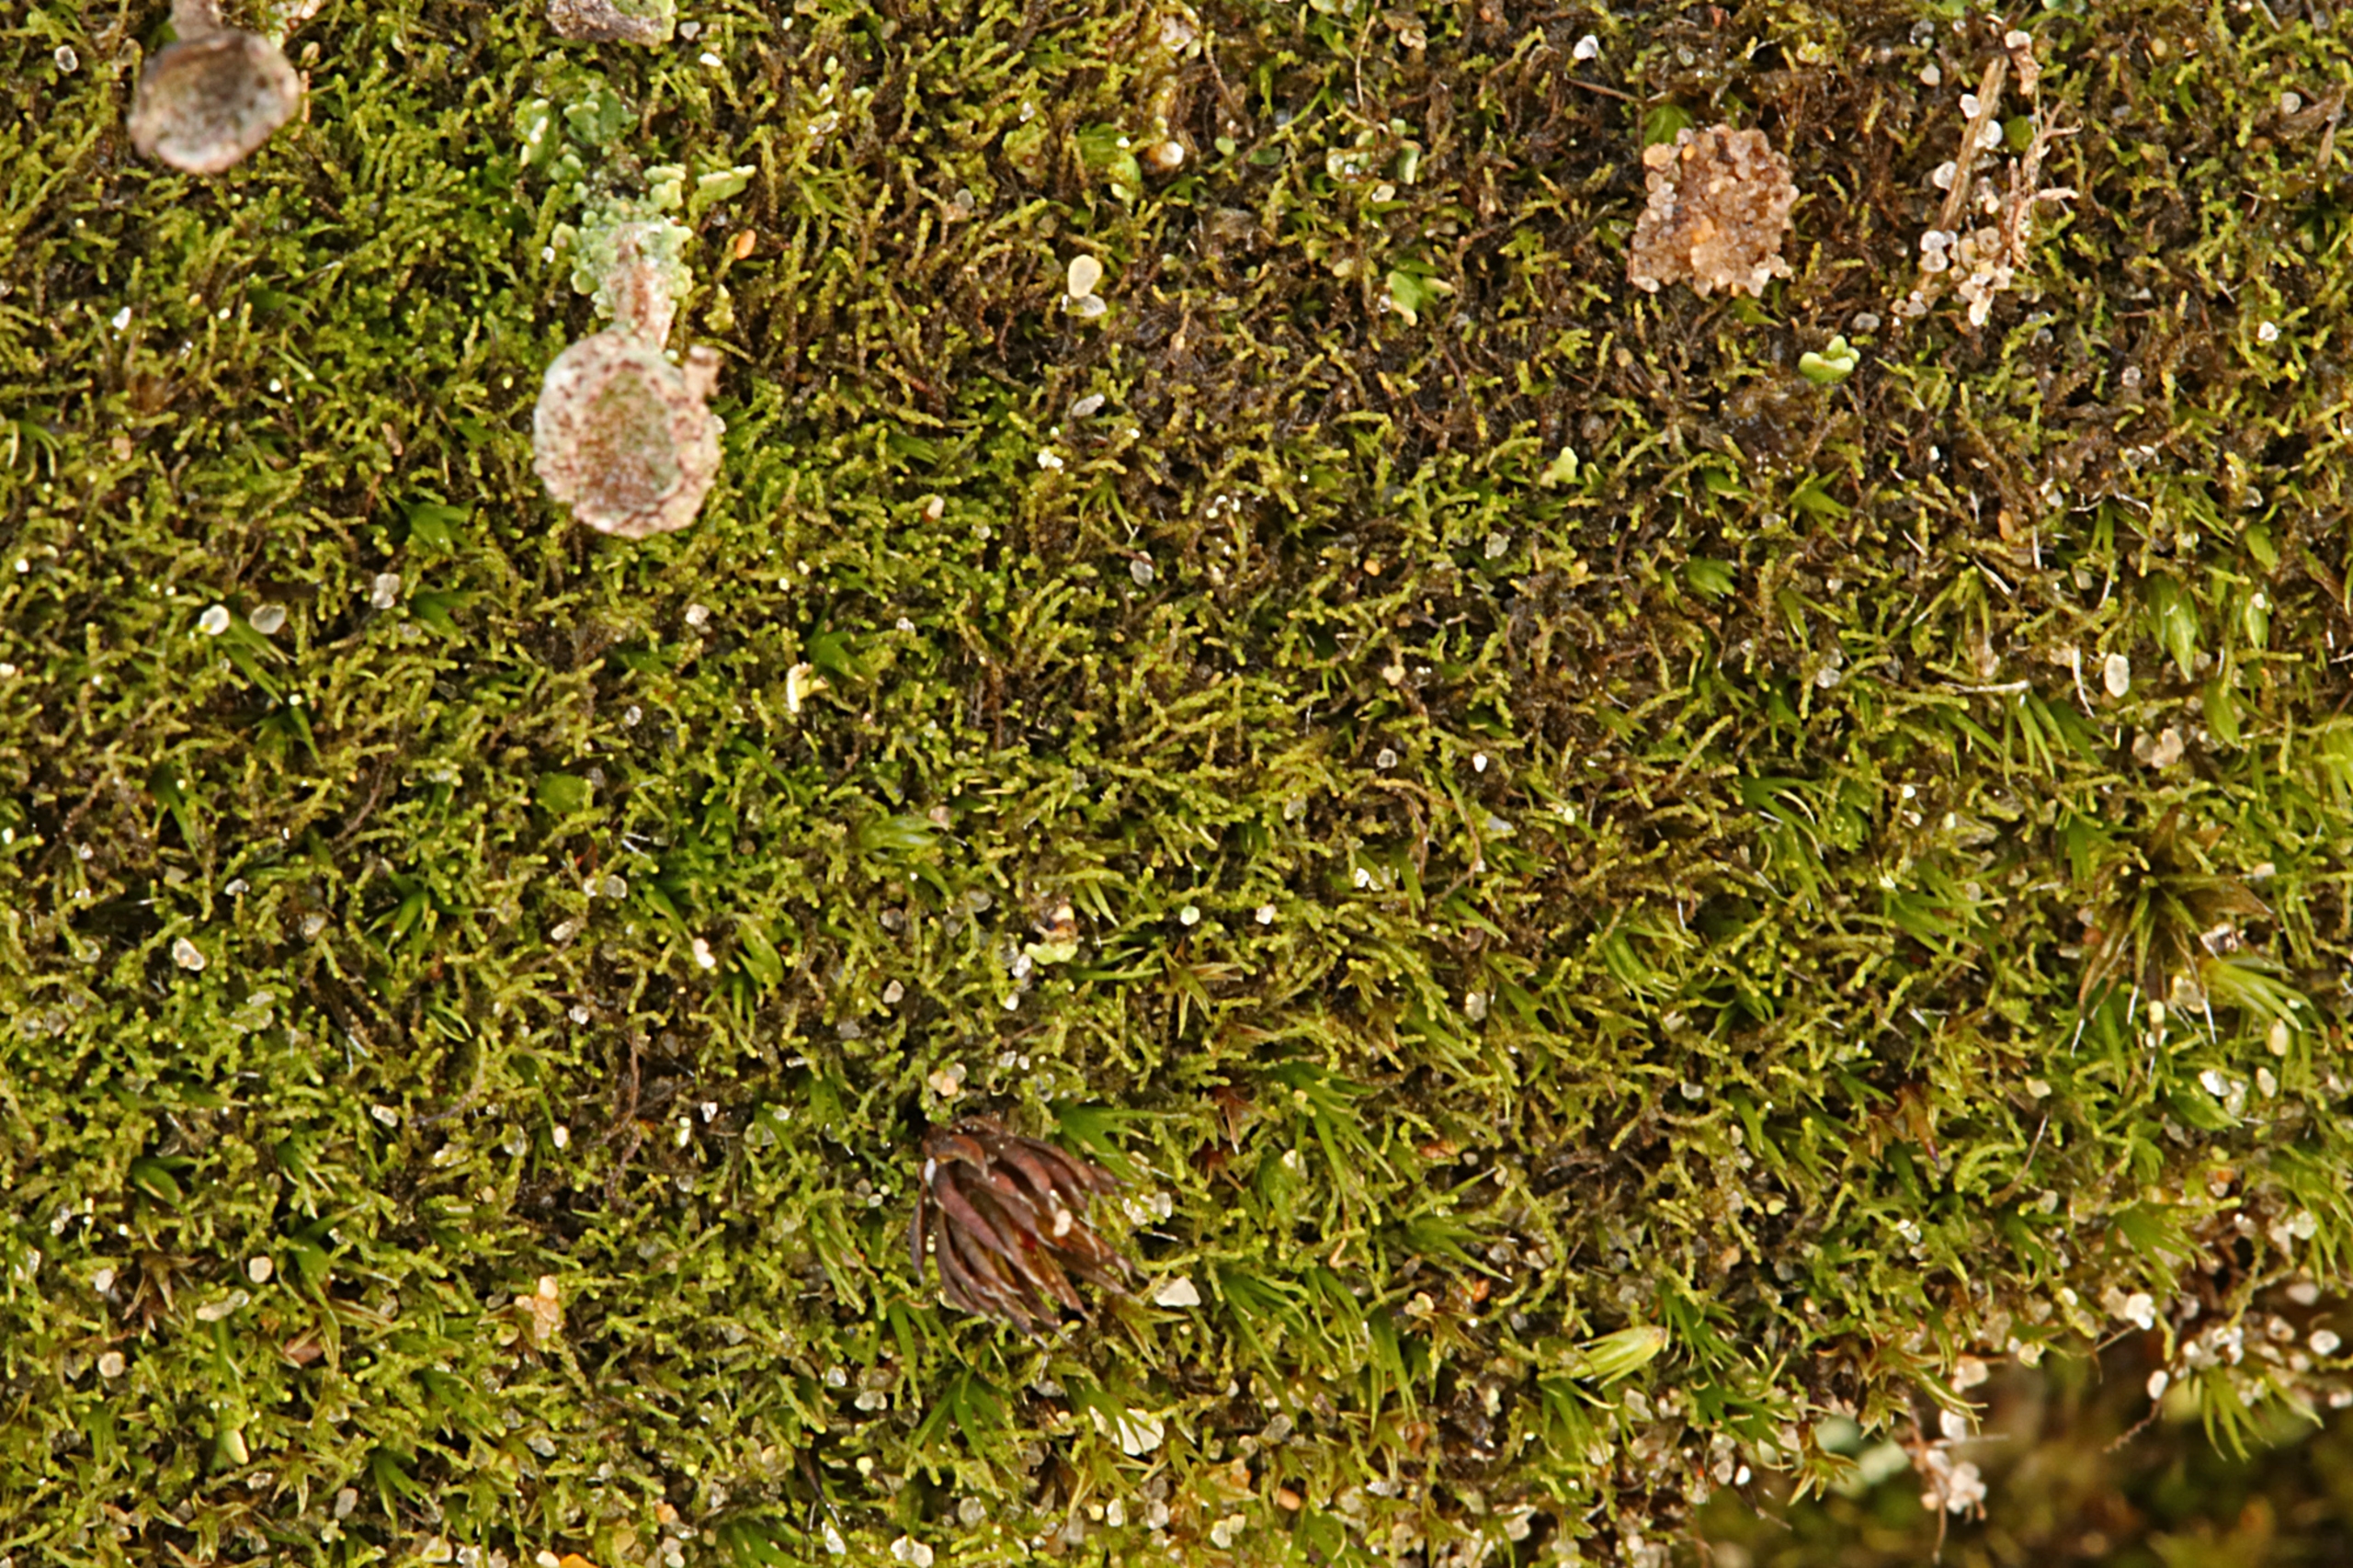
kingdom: Plantae
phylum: Marchantiophyta
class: Jungermanniopsida
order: Jungermanniales
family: Cephaloziellaceae
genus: Cephaloziella
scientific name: Cephaloziella divaricata
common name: Mørk dværgtråd
